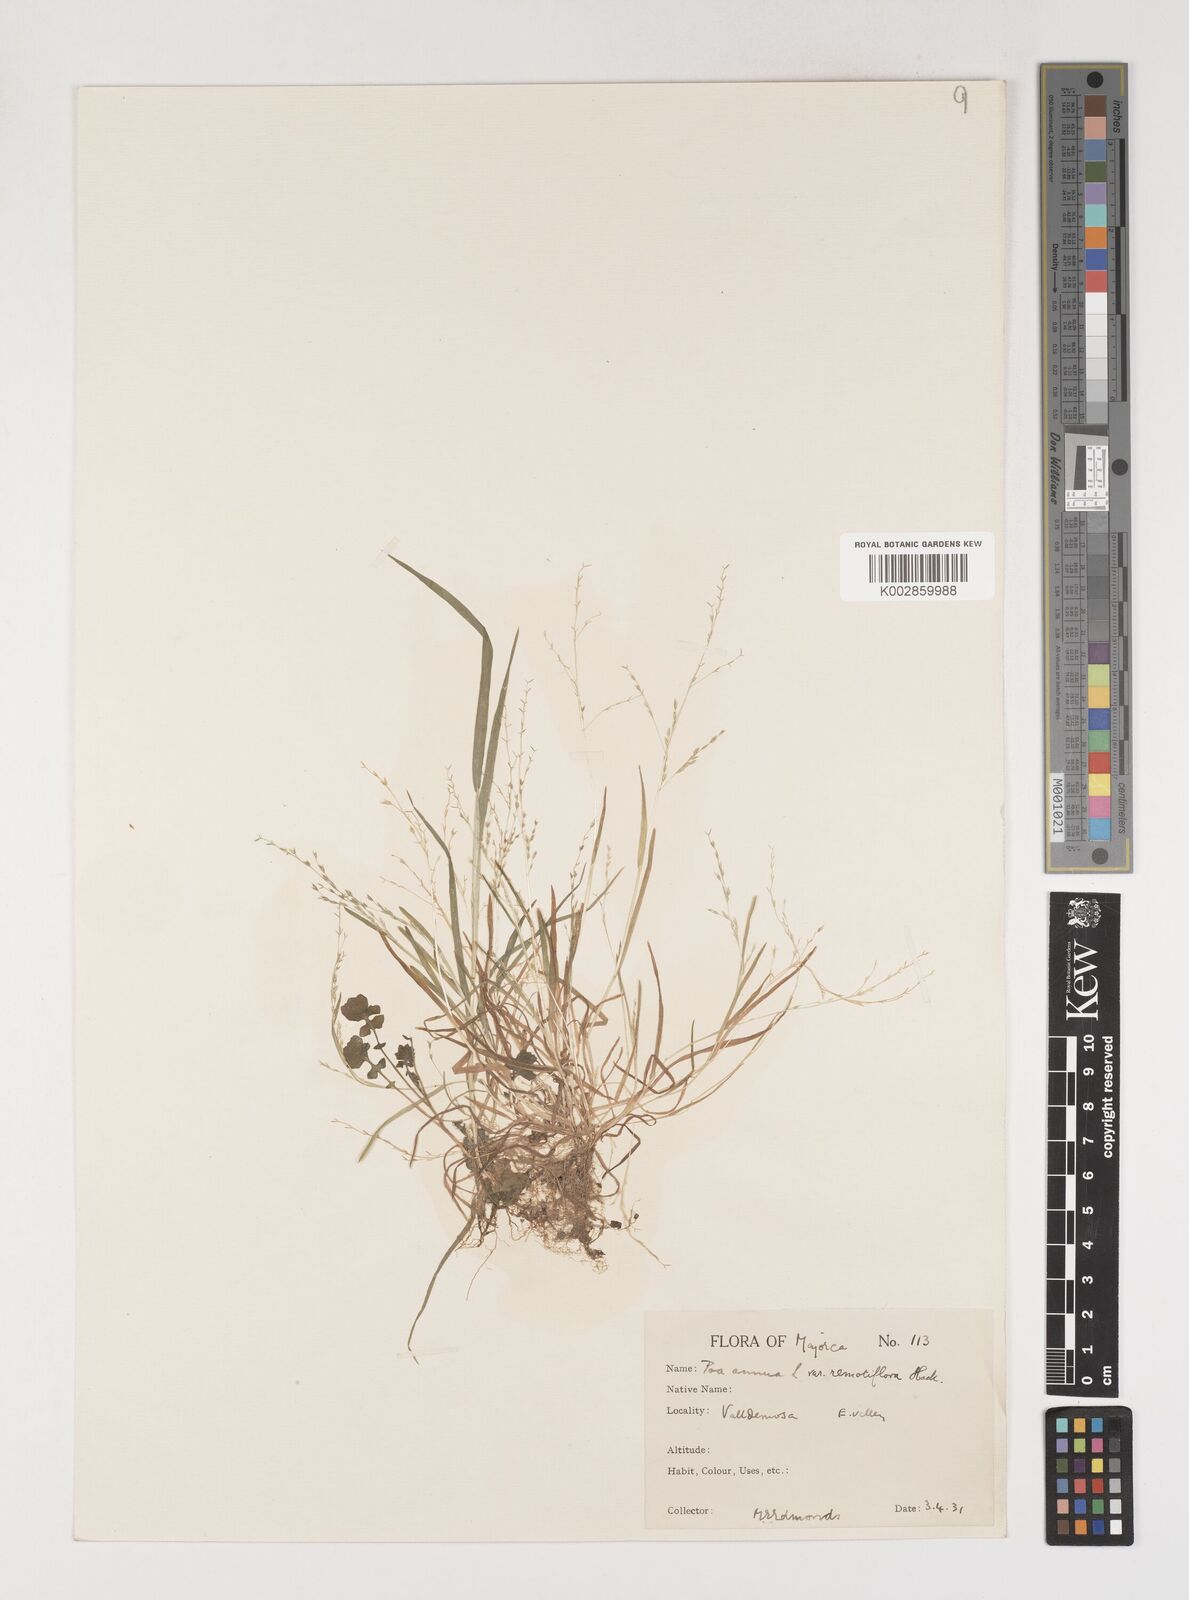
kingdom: Plantae
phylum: Tracheophyta
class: Liliopsida
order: Poales
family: Poaceae
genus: Poa
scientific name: Poa infirma
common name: Weak bluegrass
